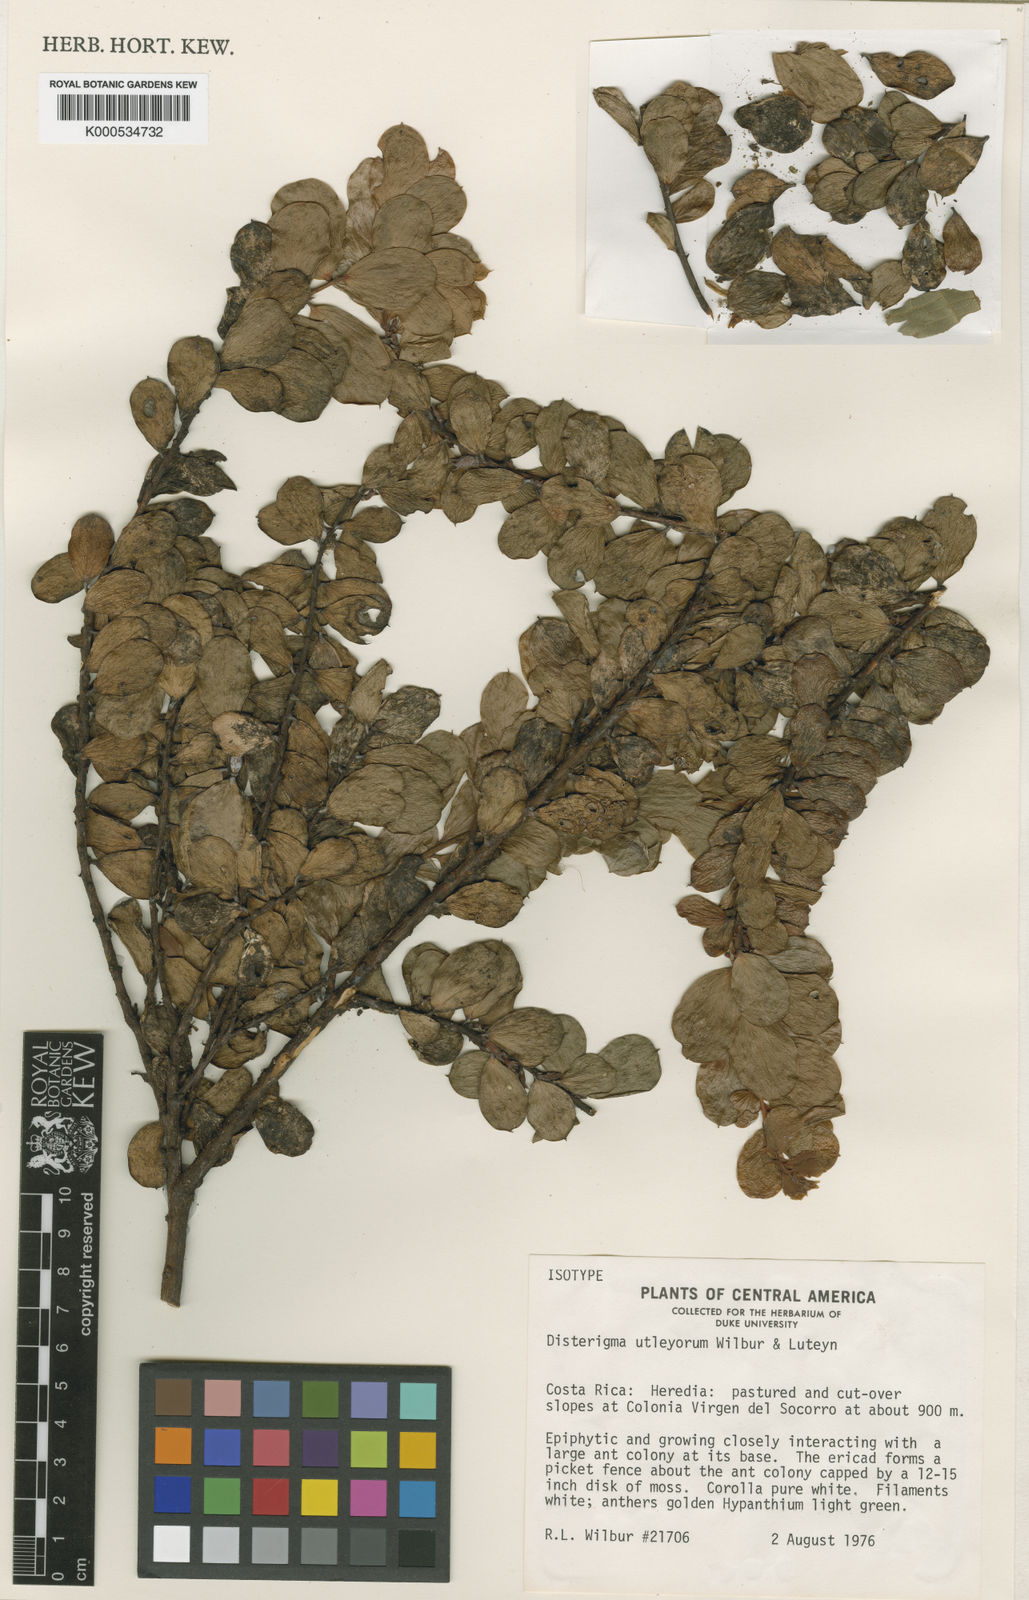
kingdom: Plantae
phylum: Tracheophyta
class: Magnoliopsida
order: Ericales
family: Ericaceae
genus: Disterigma
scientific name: Disterigma utleyorum
